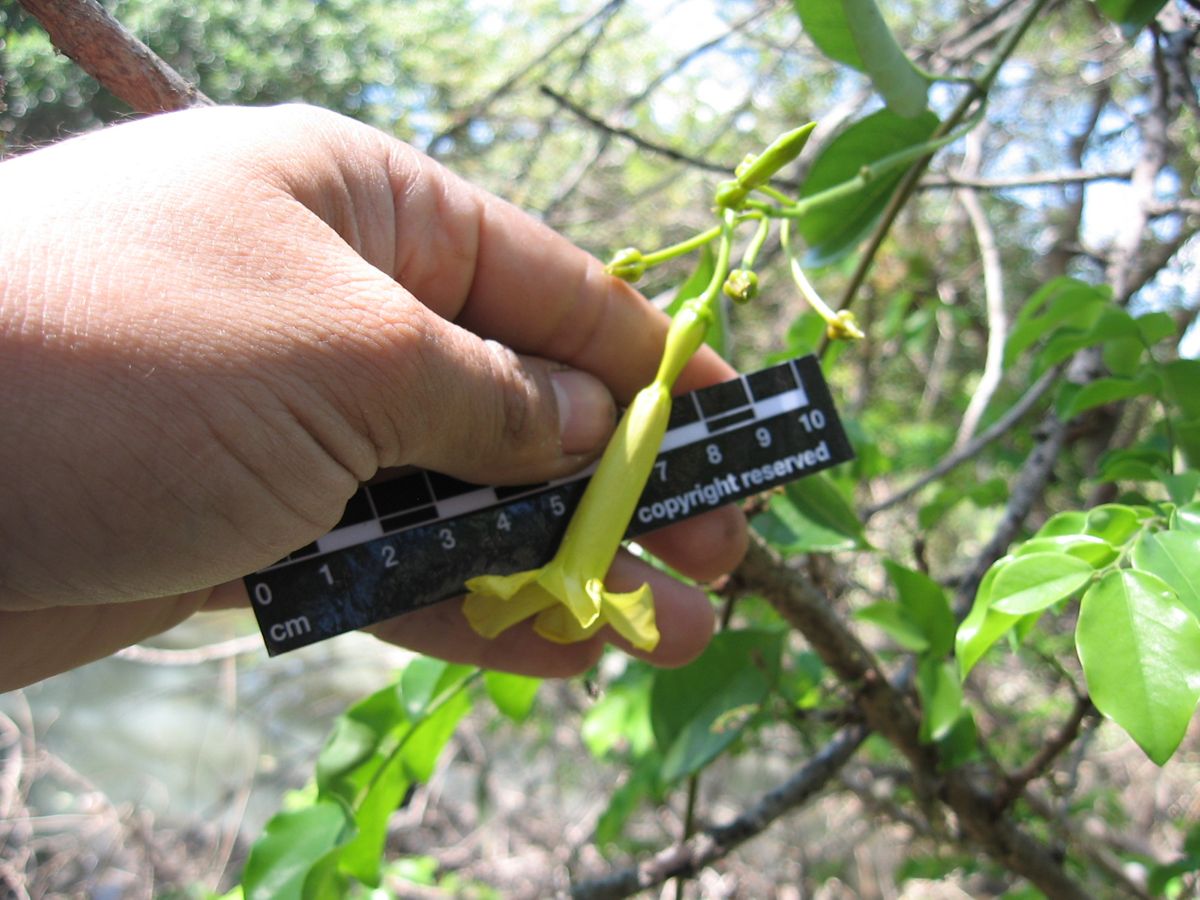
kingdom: Plantae
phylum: Tracheophyta
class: Magnoliopsida
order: Gentianales
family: Apocynaceae
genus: Pentalinon
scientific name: Pentalinon andrieuxii
